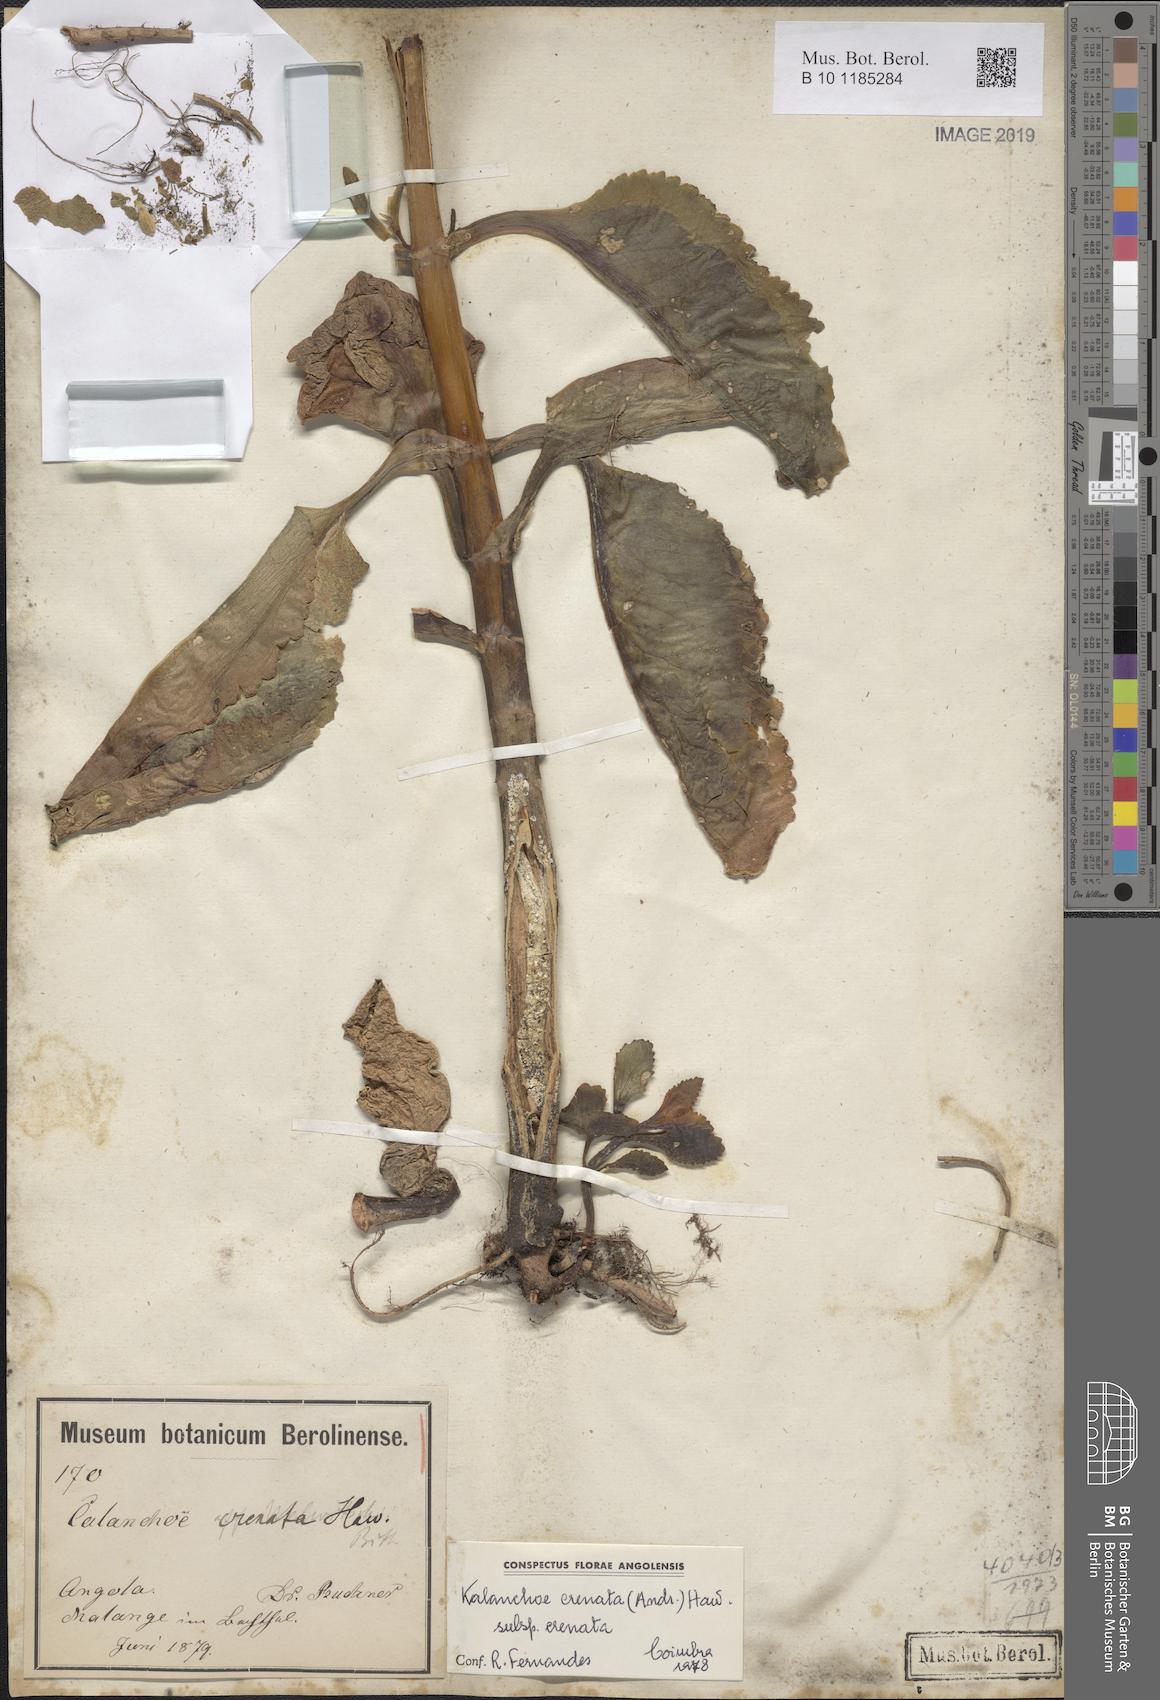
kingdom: Plantae
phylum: Tracheophyta
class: Magnoliopsida
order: Saxifragales
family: Crassulaceae
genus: Kalanchoe
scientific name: Kalanchoe crenata
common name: Neverdie
